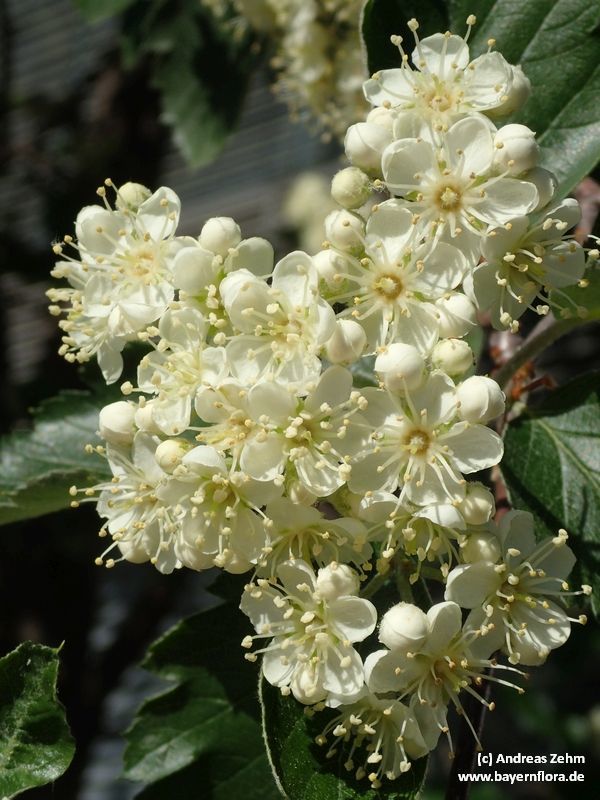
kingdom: Plantae
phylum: Tracheophyta
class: Magnoliopsida
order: Rosales
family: Rosaceae
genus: Scandosorbus
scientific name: Scandosorbus intermedia
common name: Swedish whitebeam
